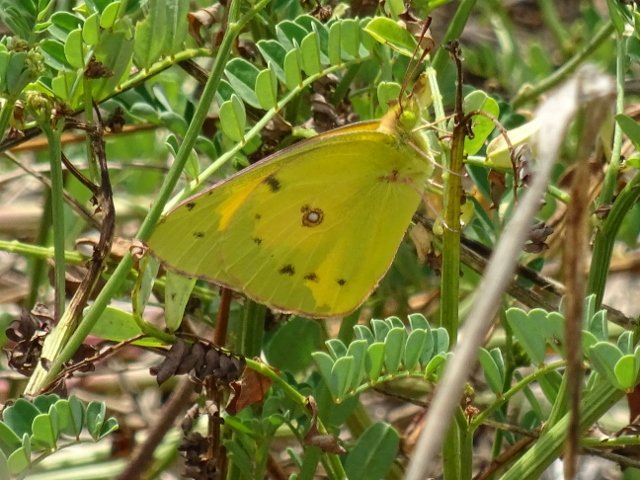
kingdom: Animalia
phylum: Arthropoda
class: Insecta
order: Lepidoptera
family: Pieridae
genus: Colias
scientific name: Colias philodice
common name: Clouded Sulphur
